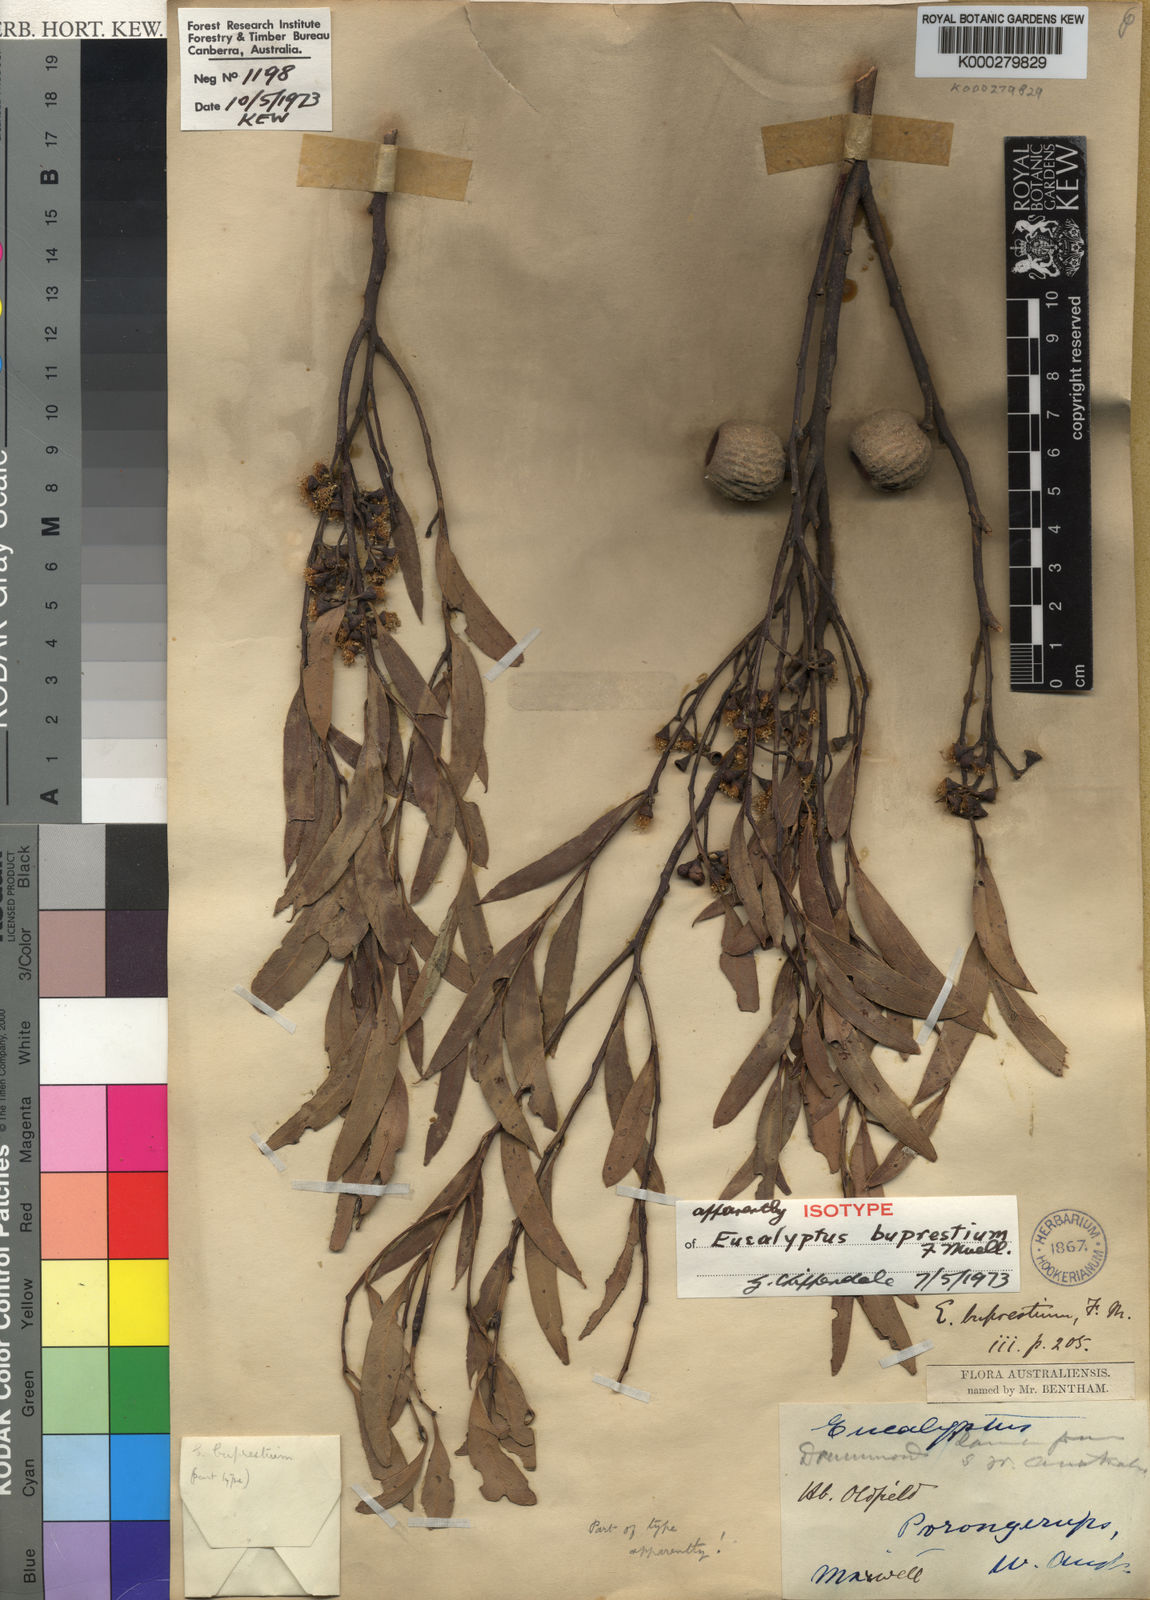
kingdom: Plantae
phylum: Tracheophyta
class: Magnoliopsida
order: Myrtales
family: Myrtaceae
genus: Eucalyptus
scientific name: Eucalyptus buprestium
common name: Apple mallee
